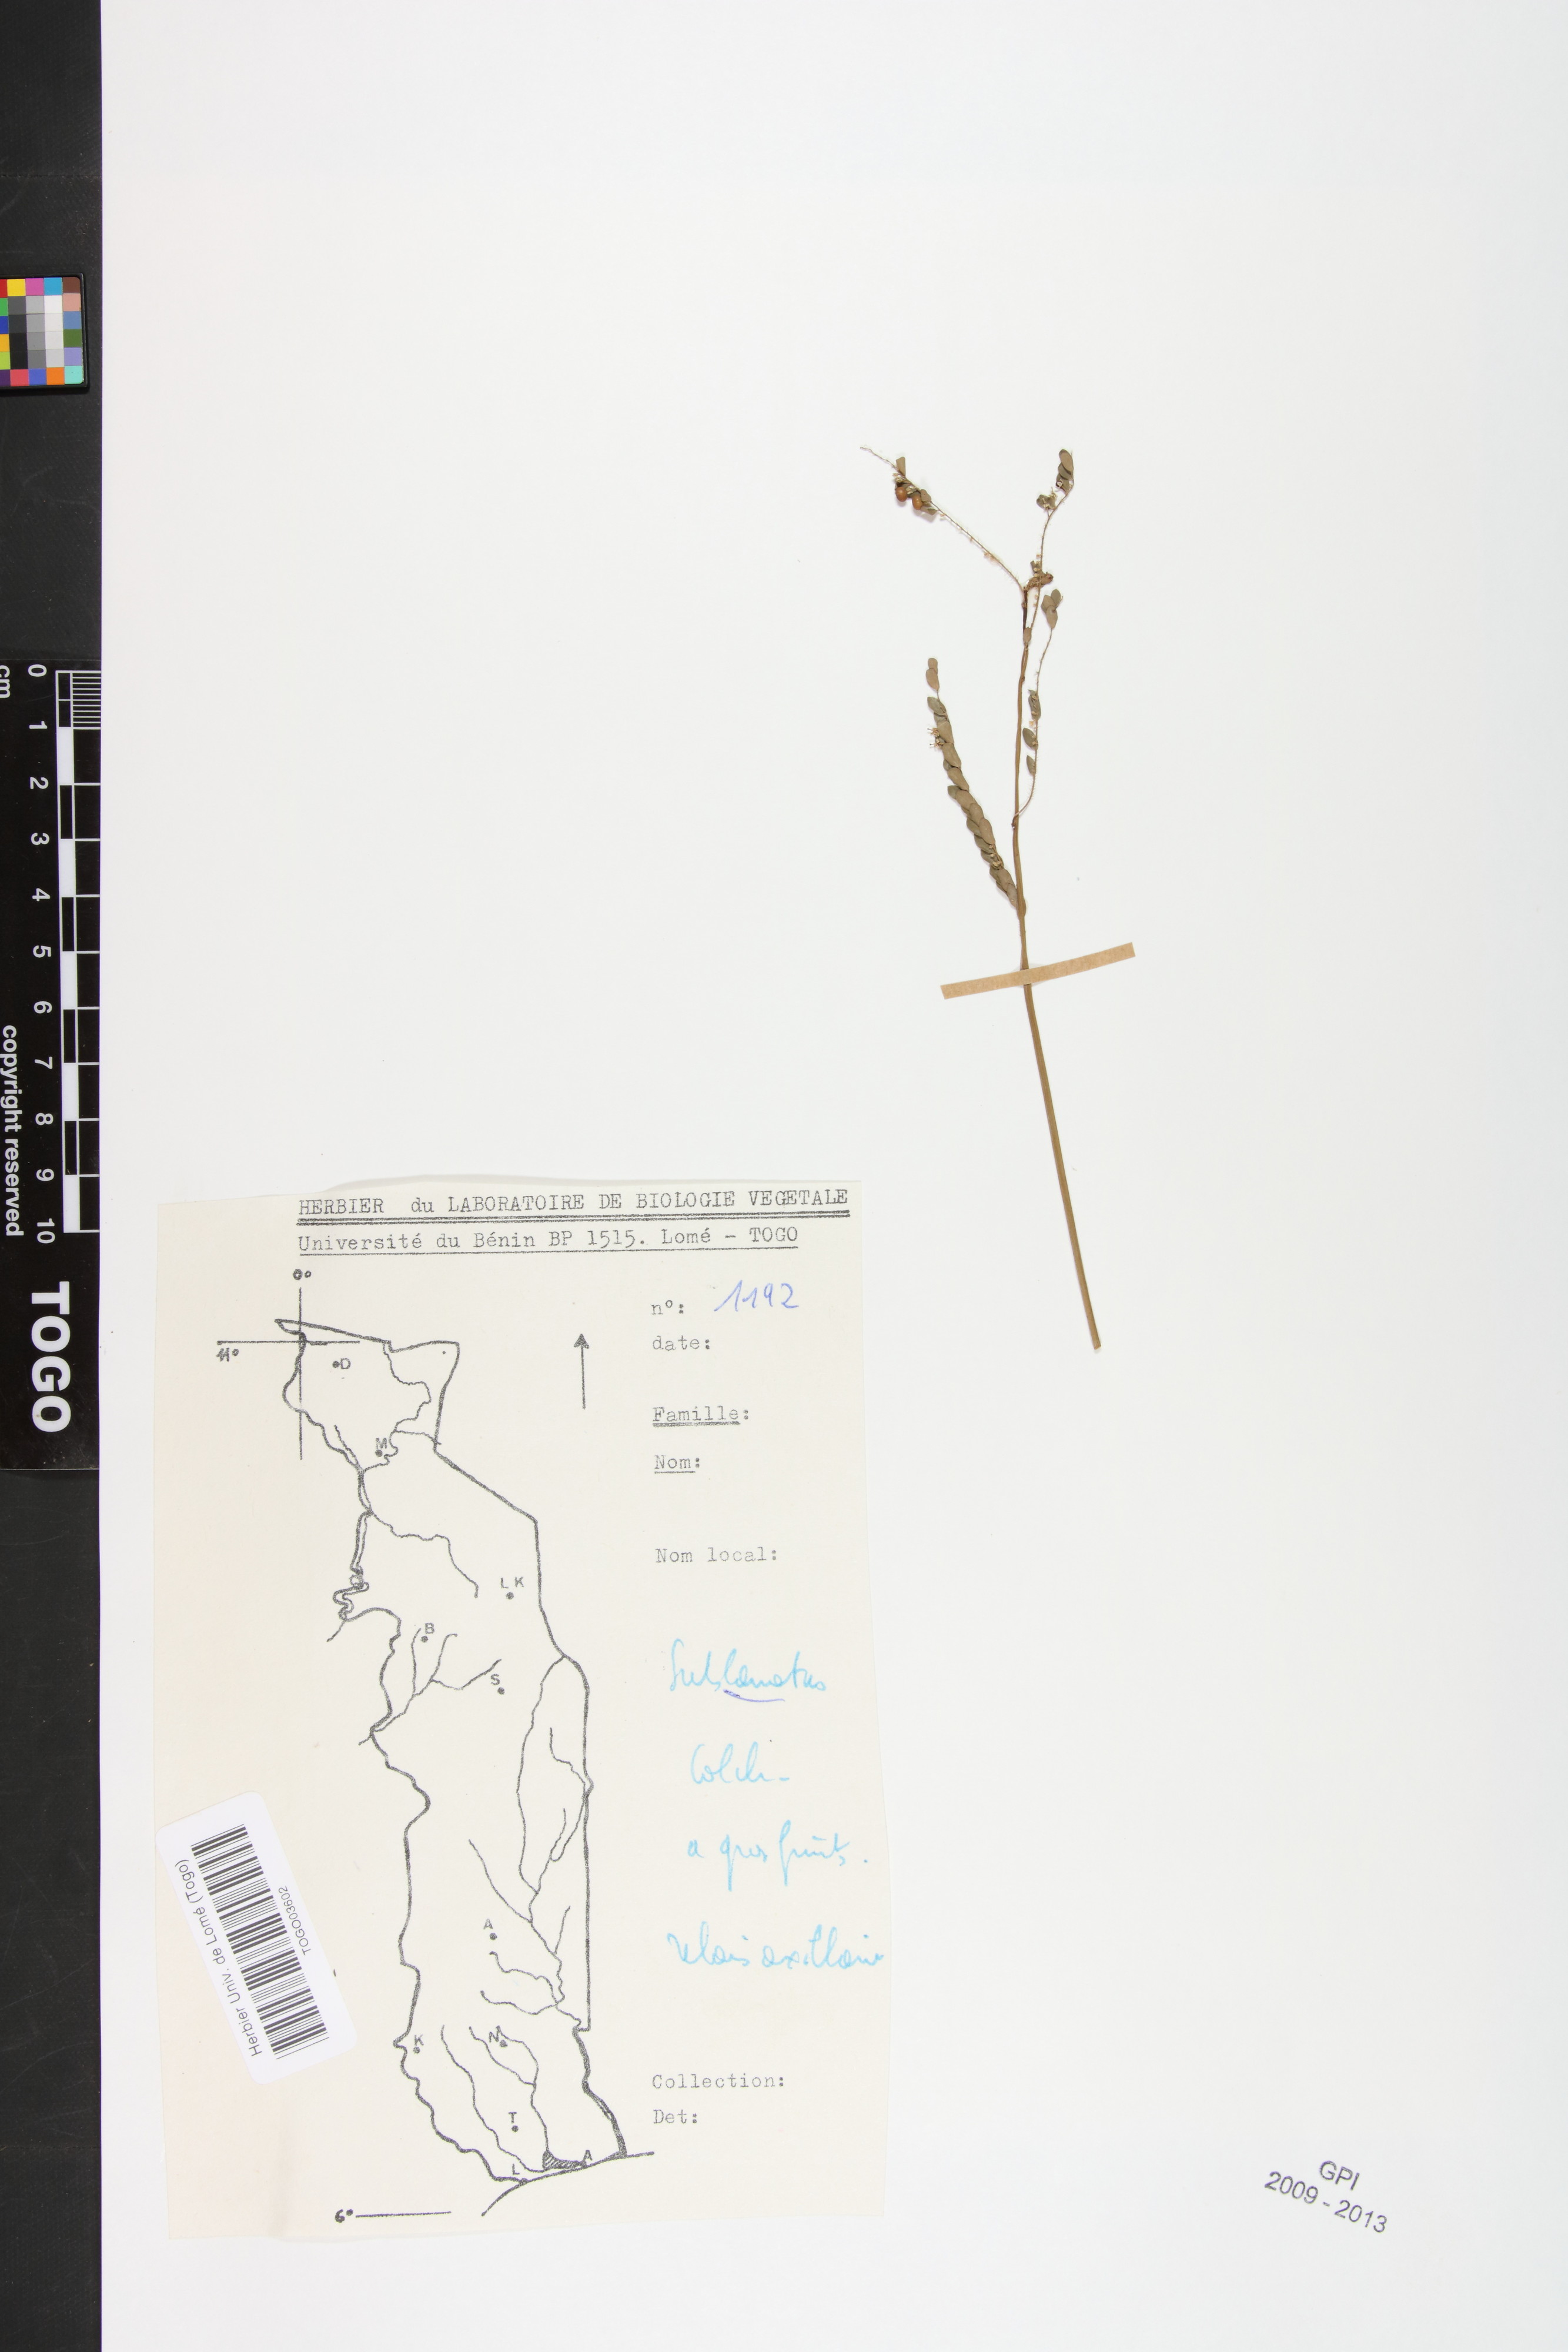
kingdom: Plantae
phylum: Tracheophyta
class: Magnoliopsida
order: Malpighiales
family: Phyllanthaceae
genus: Phyllanthus
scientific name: Phyllanthus sublanatus
